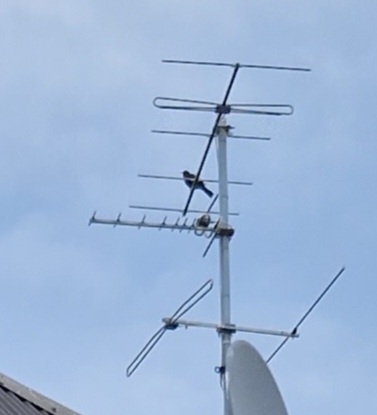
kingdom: Animalia
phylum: Chordata
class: Aves
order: Passeriformes
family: Turdidae
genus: Turdus
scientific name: Turdus merula
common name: Solsort
